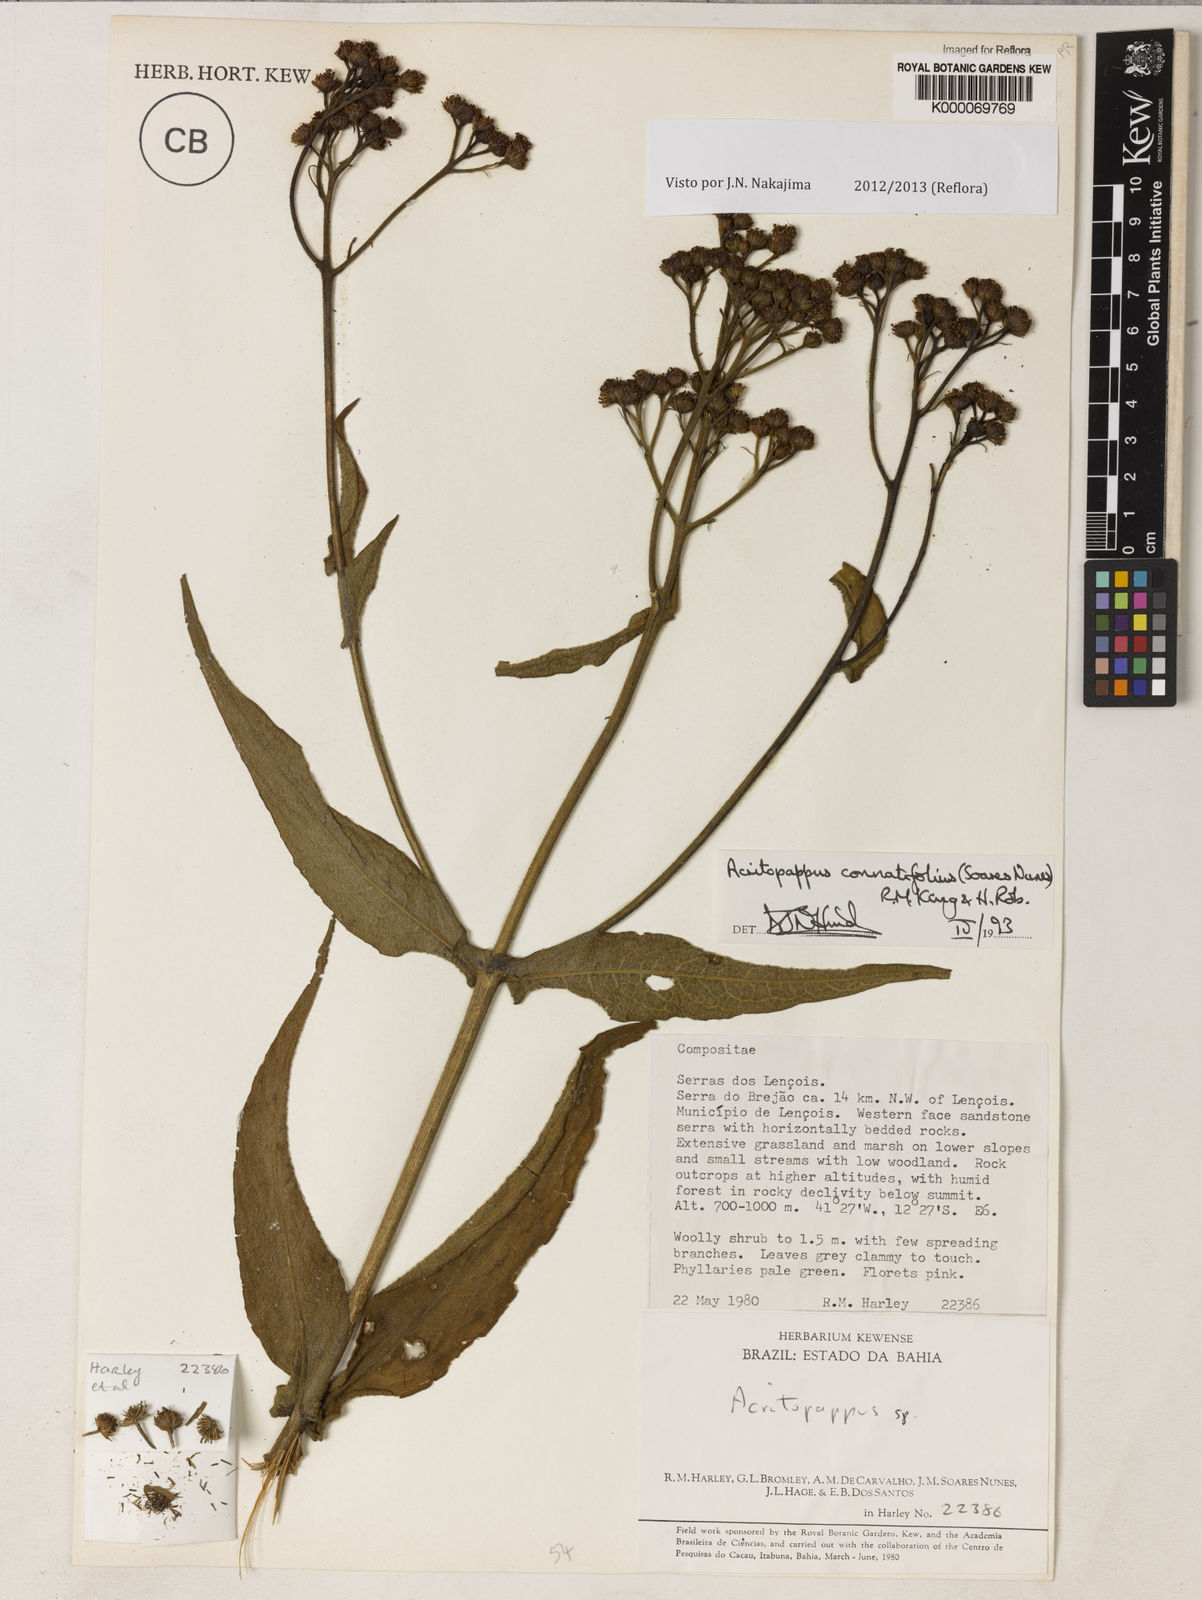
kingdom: Plantae
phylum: Tracheophyta
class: Magnoliopsida
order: Asterales
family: Asteraceae
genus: Acritopappus
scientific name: Acritopappus connatifolius
